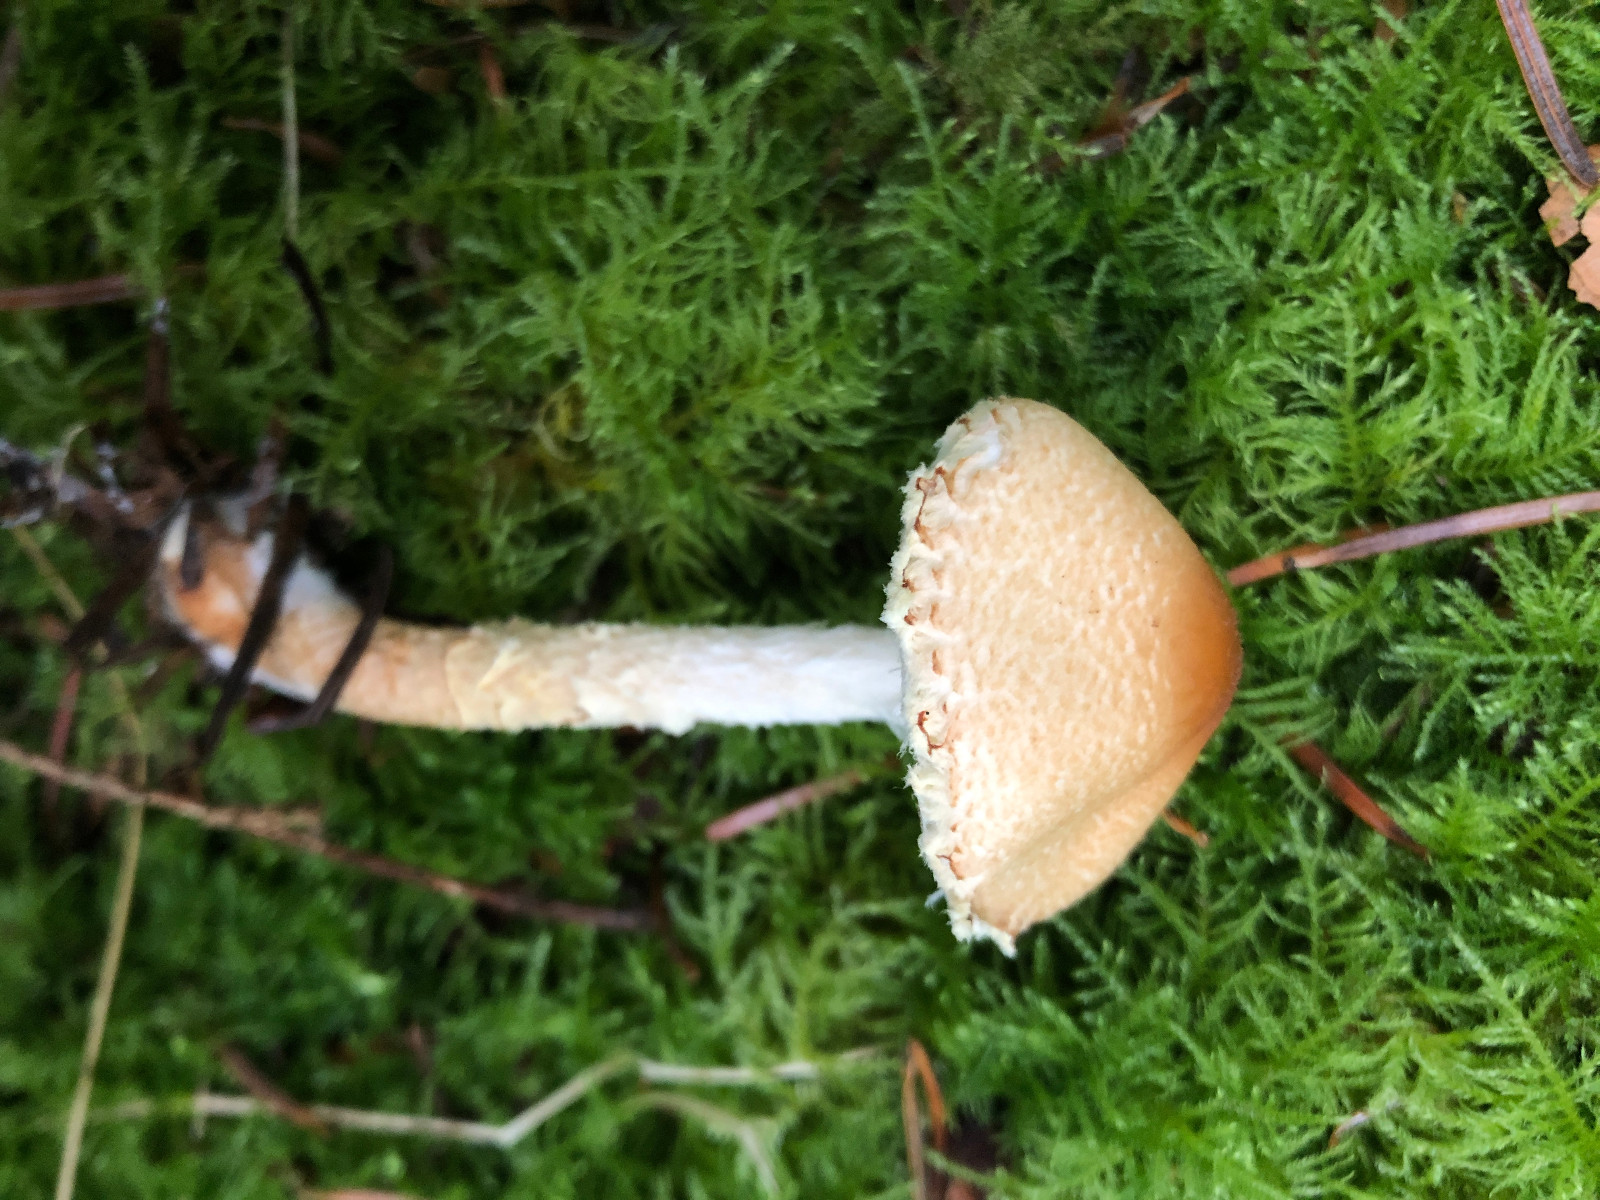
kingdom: Fungi
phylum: Basidiomycota
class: Agaricomycetes
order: Agaricales
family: Agaricaceae
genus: Lepiota
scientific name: Lepiota magnispora
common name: gulfnugget parasolhat
